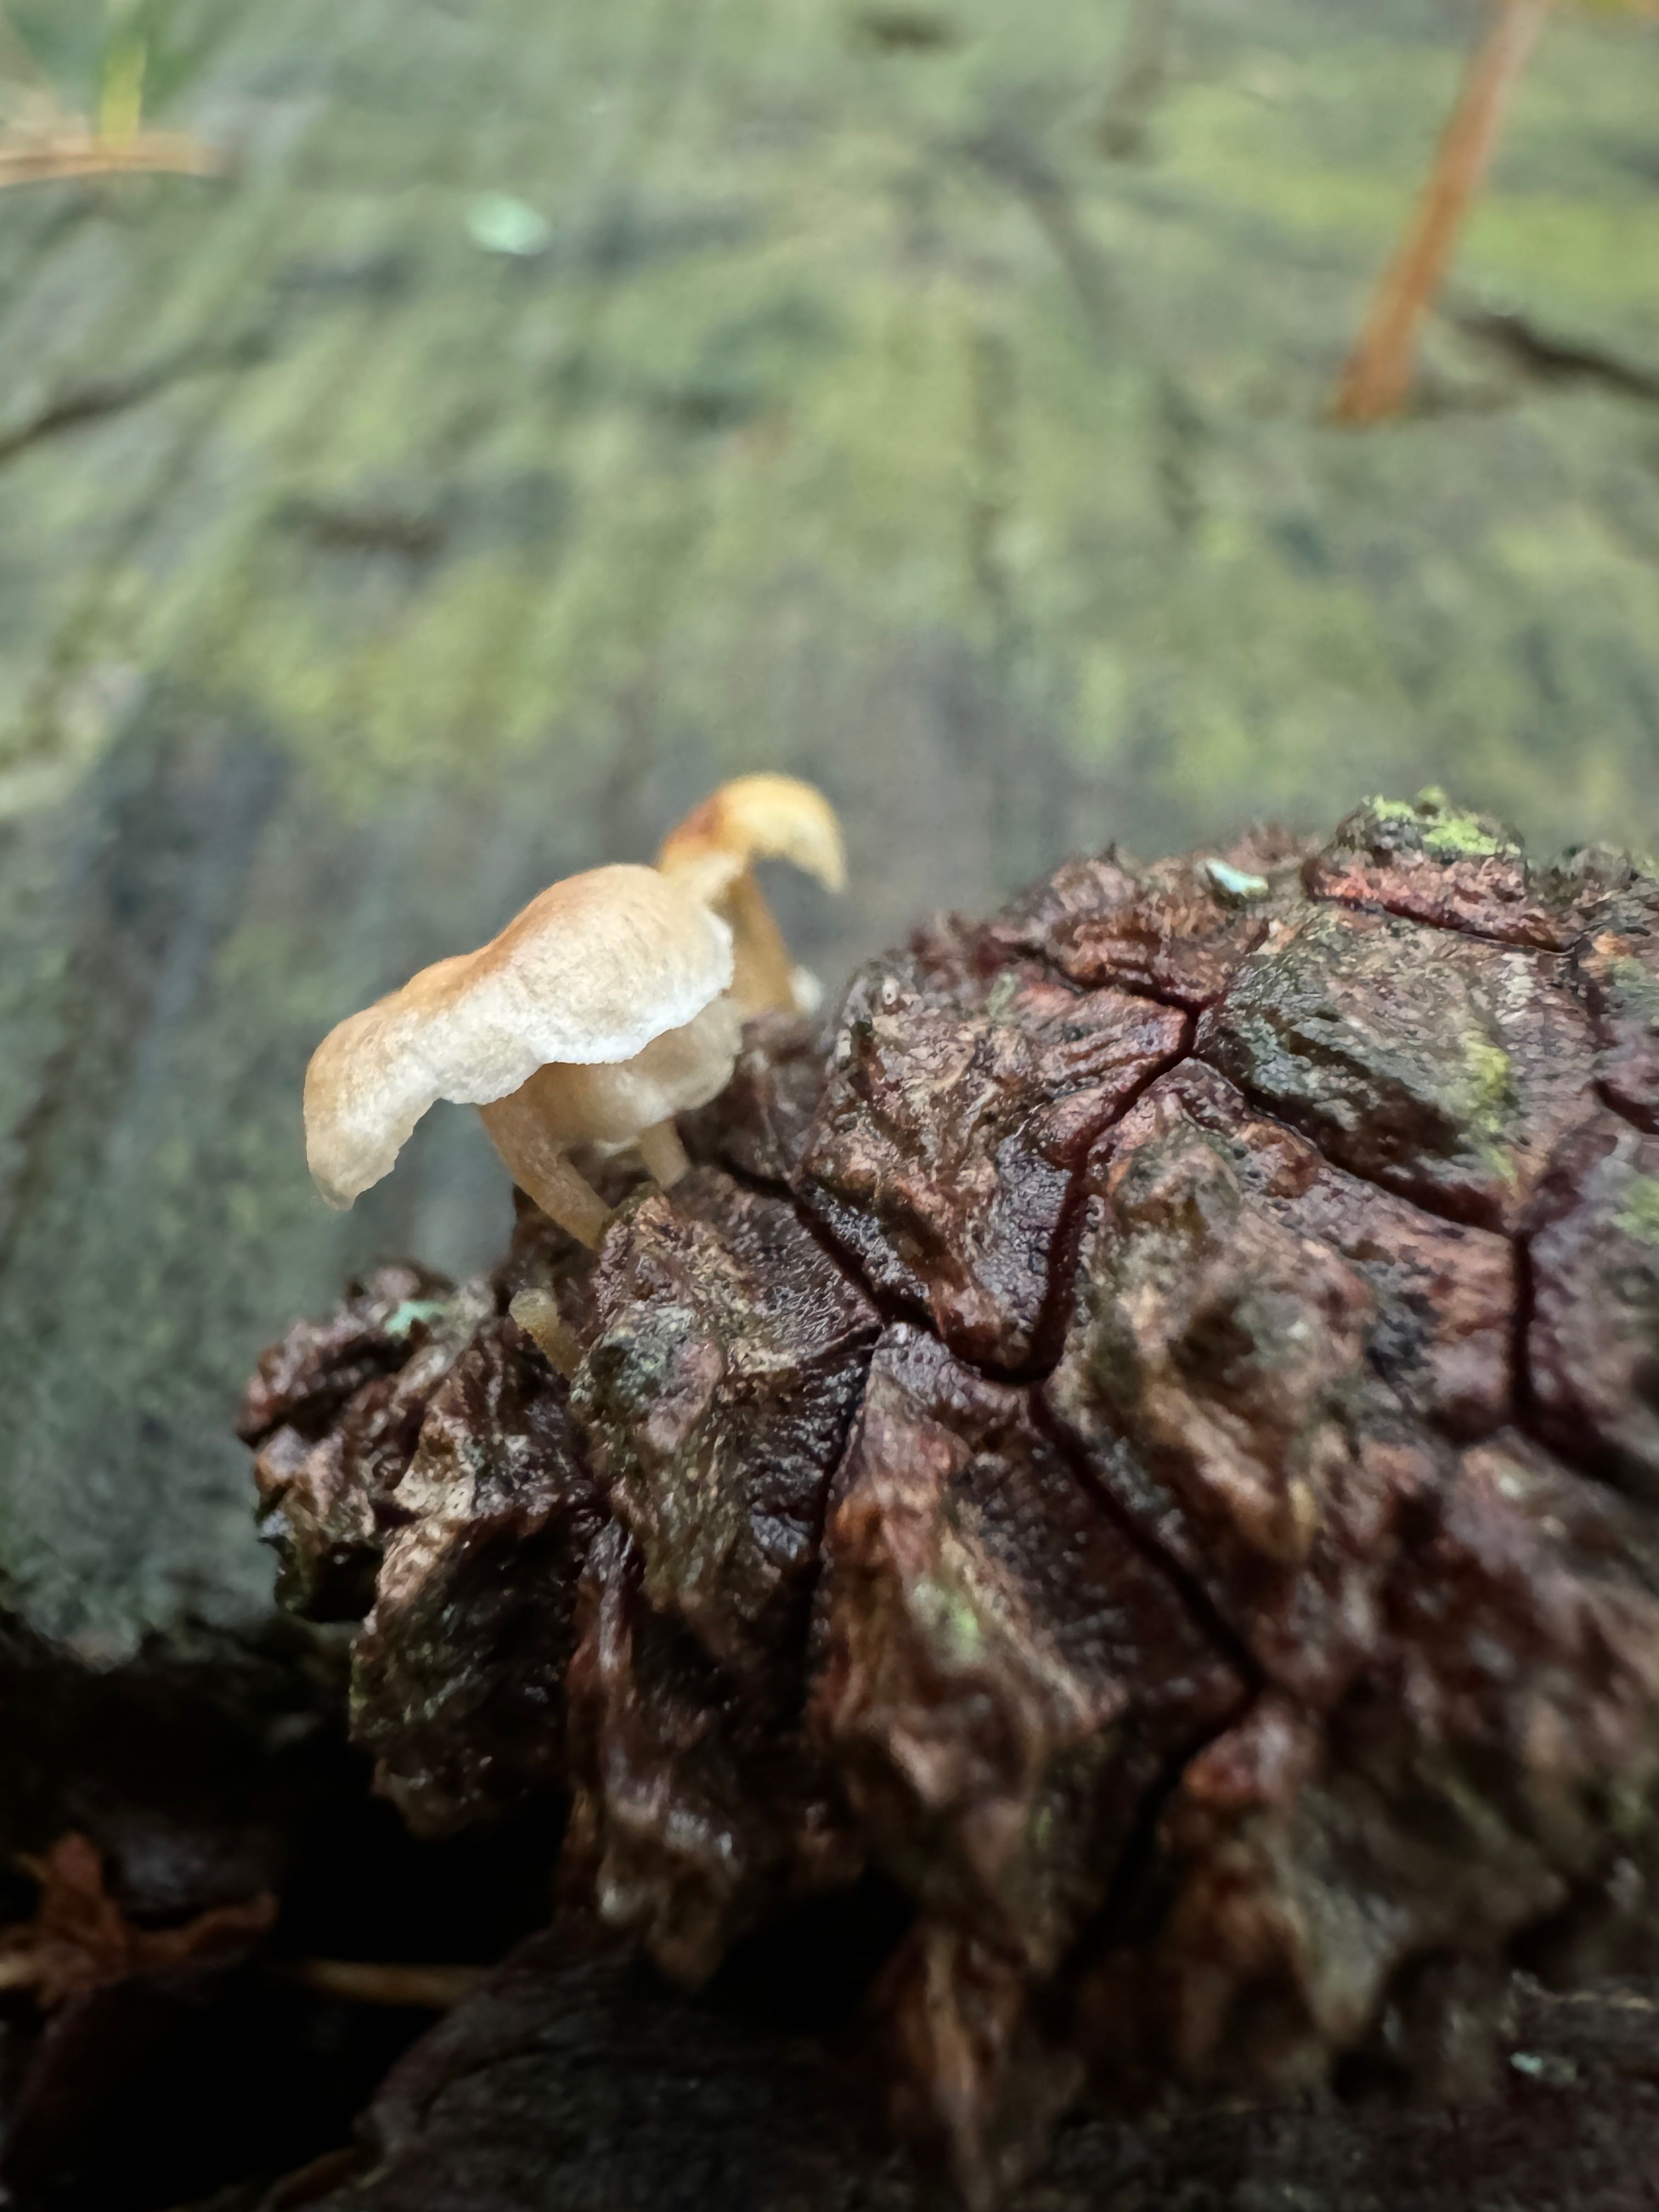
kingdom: Fungi
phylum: Basidiomycota
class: Agaricomycetes
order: Agaricales
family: Marasmiaceae
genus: Baeospora
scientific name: Baeospora myosura
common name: koglebruskhat
